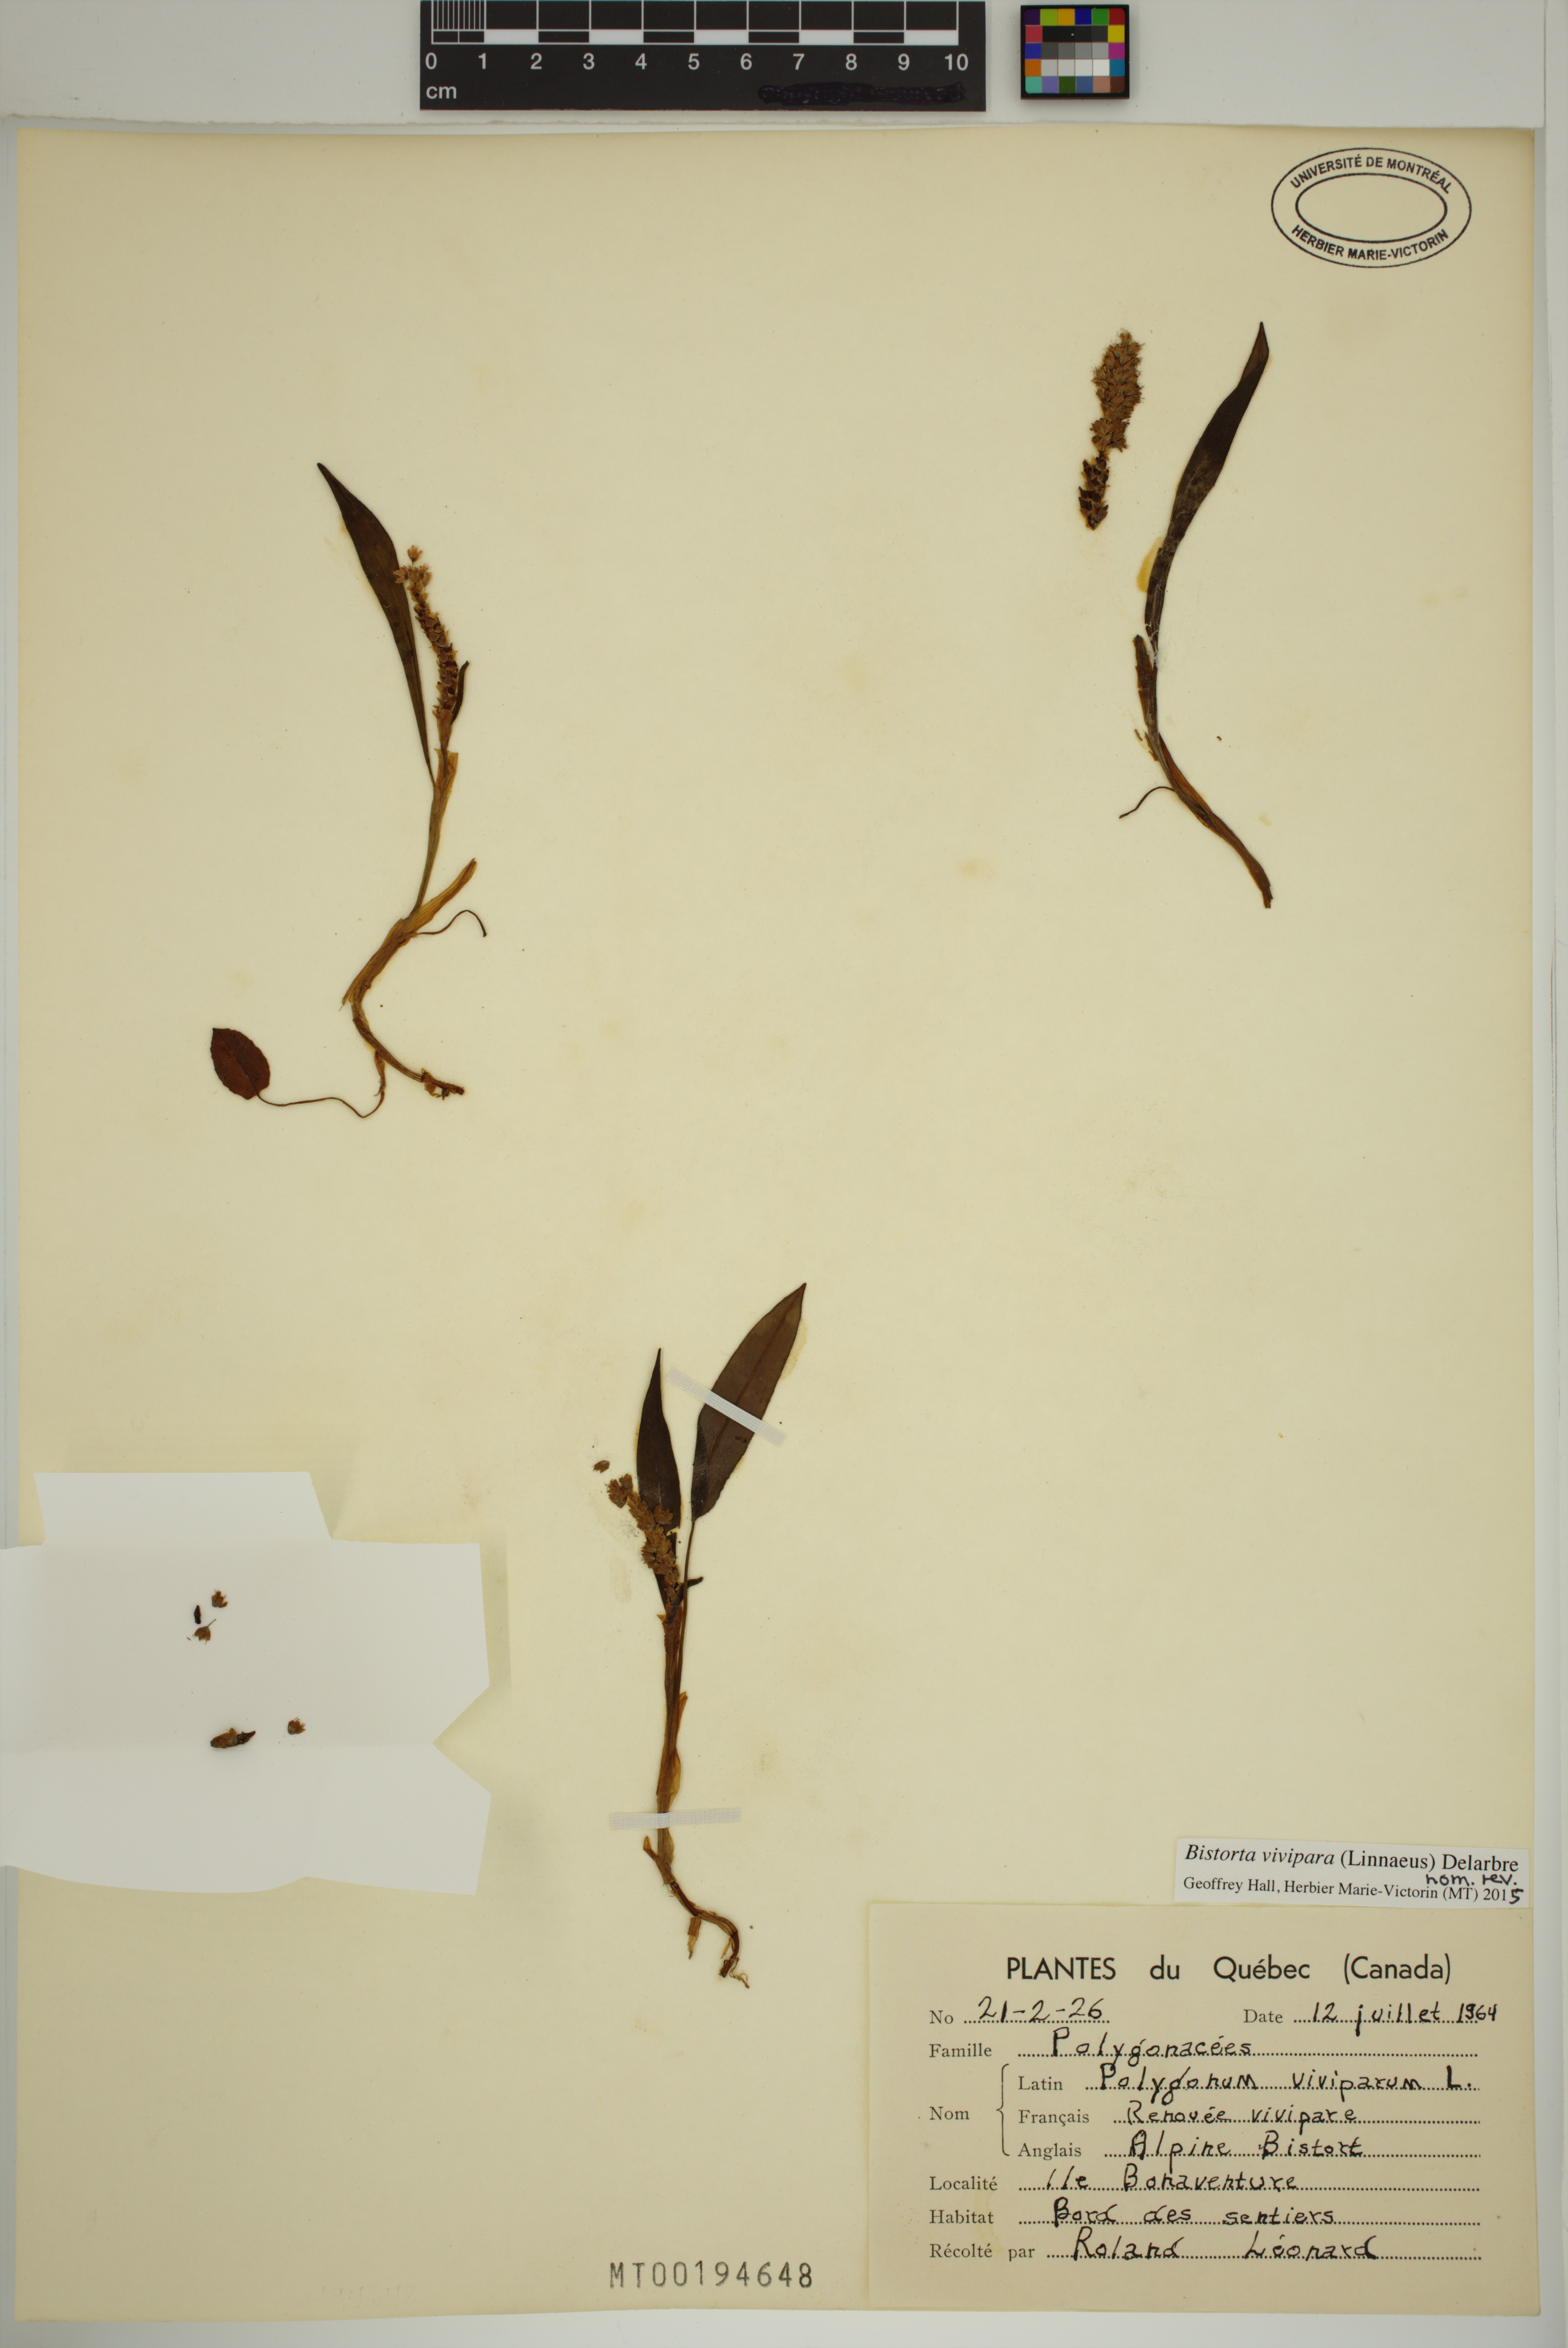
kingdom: Plantae
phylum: Tracheophyta
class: Magnoliopsida
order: Caryophyllales
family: Polygonaceae
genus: Bistorta
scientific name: Bistorta vivipara
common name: Alpine bistort
